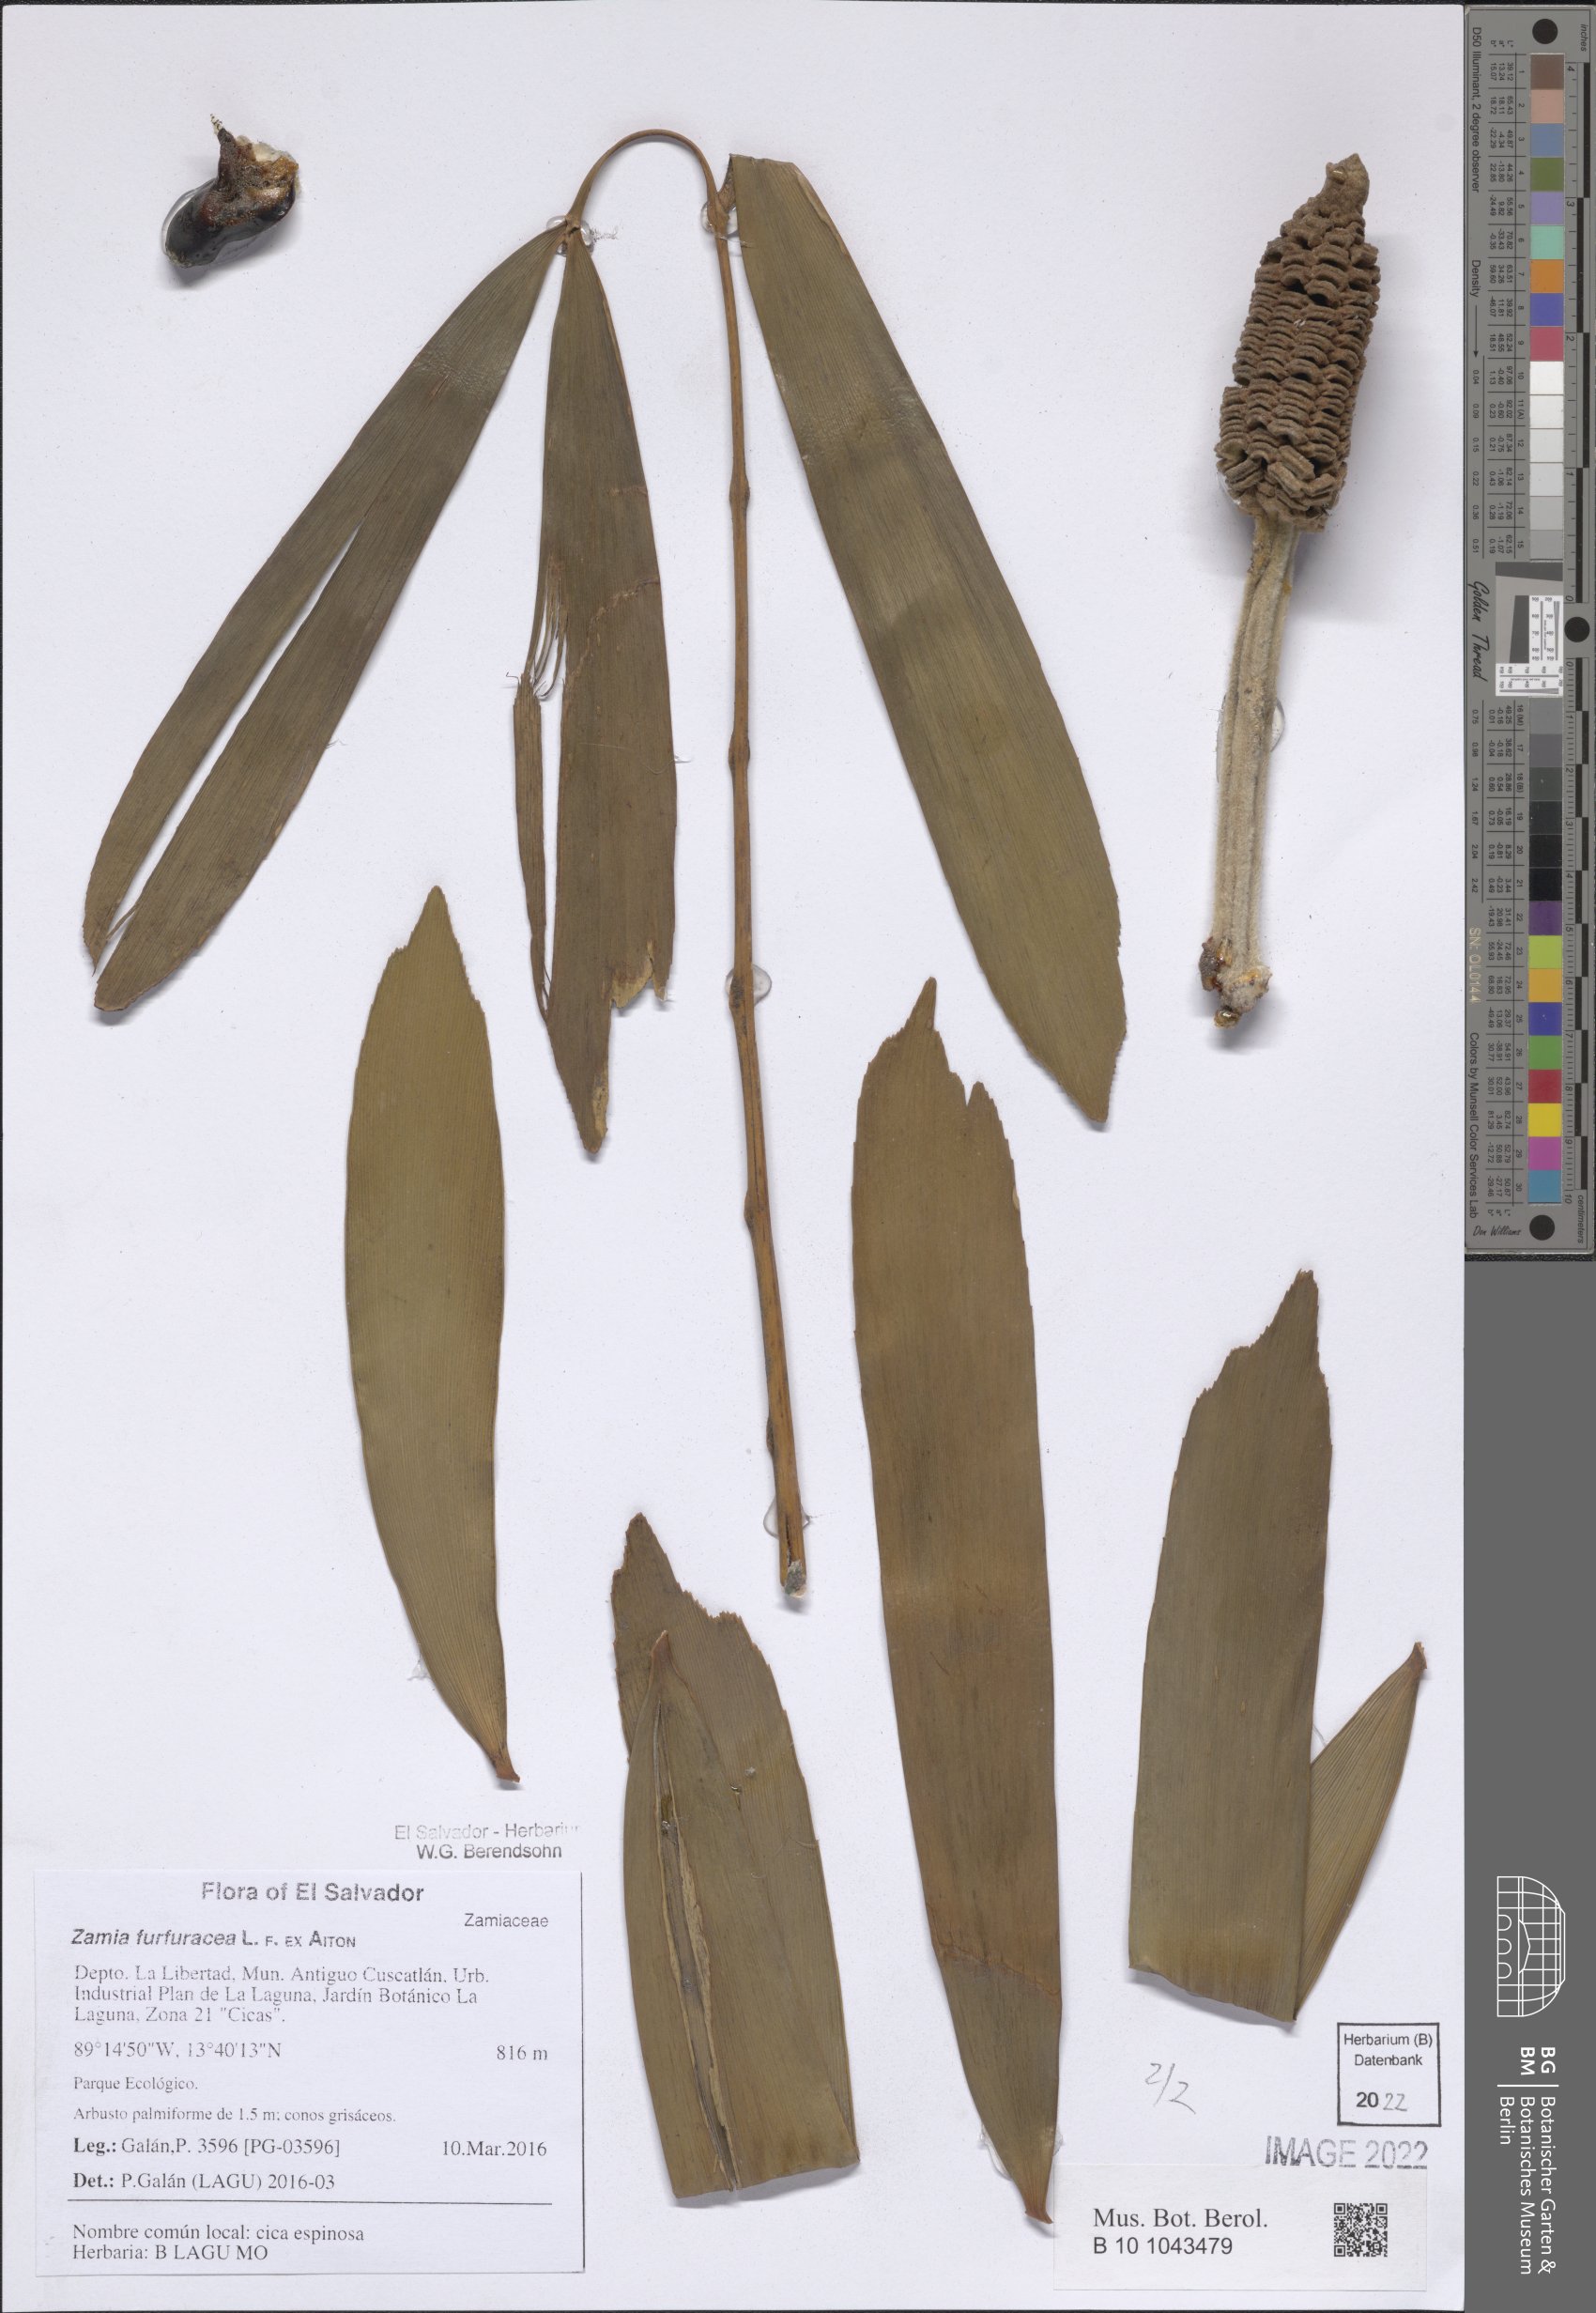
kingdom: Plantae
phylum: Tracheophyta
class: Cycadopsida
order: Cycadales
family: Zamiaceae
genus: Zamia
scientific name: Zamia furfuracea
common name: Cardboard palm
